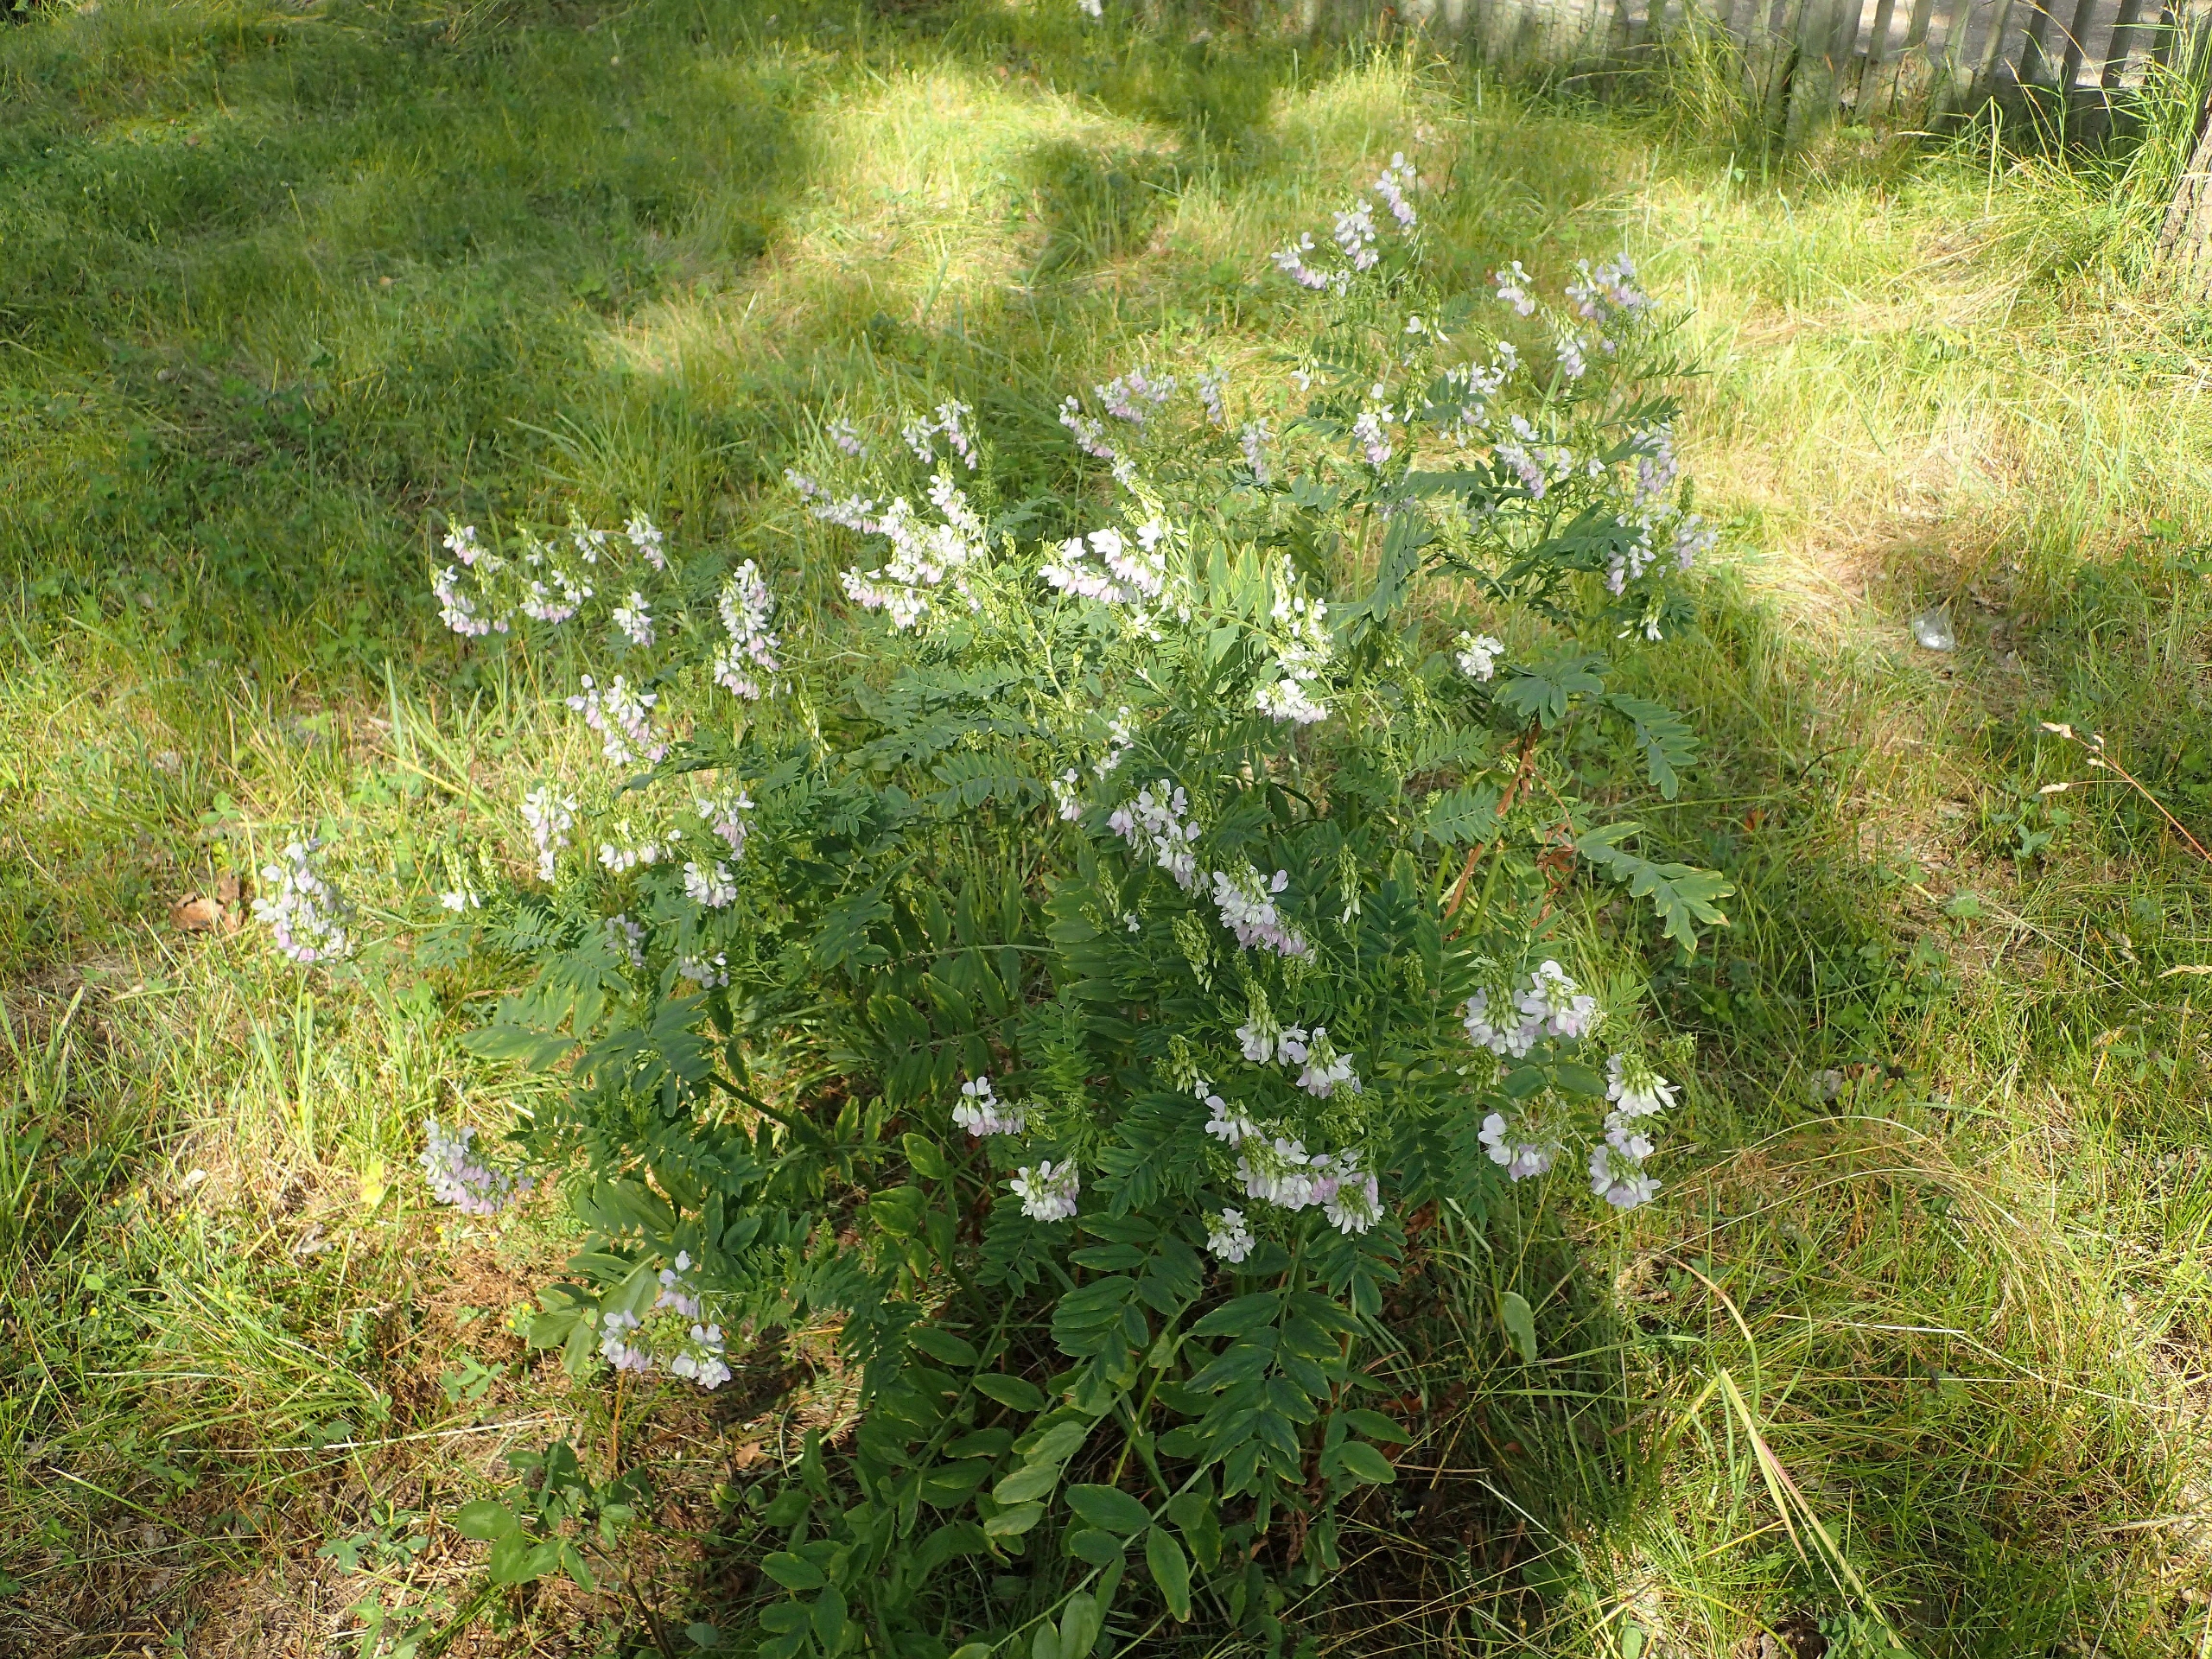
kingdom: Plantae
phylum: Tracheophyta
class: Magnoliopsida
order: Fabales
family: Fabaceae
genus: Galega
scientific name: Galega officinalis
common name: Læge-stregbælg
